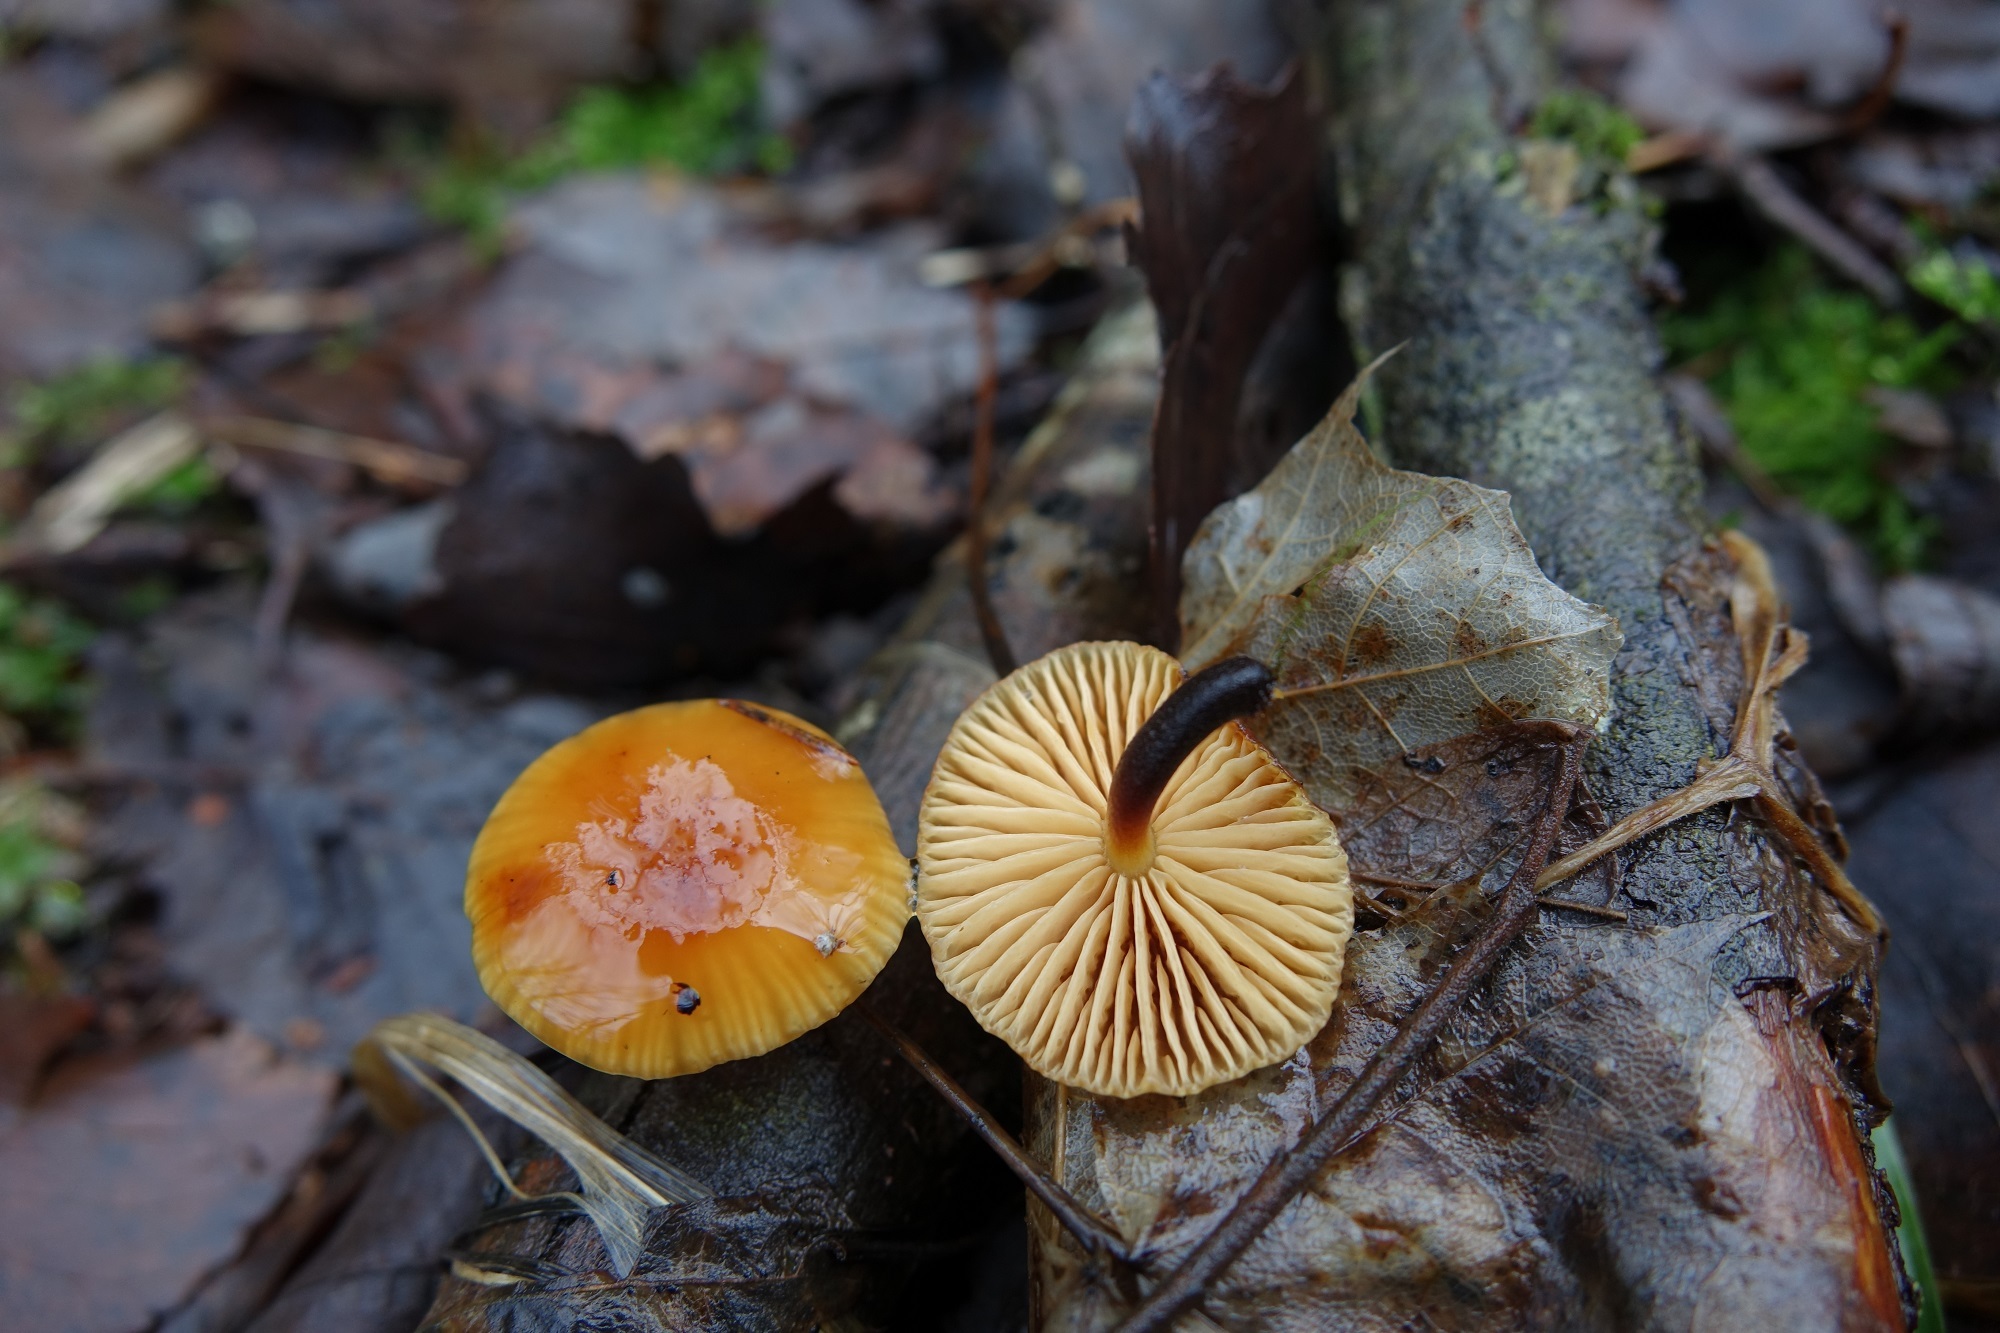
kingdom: Fungi
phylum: Basidiomycota
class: Agaricomycetes
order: Agaricales
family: Physalacriaceae
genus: Flammulina
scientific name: Flammulina velutipes
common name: Velvet shank
